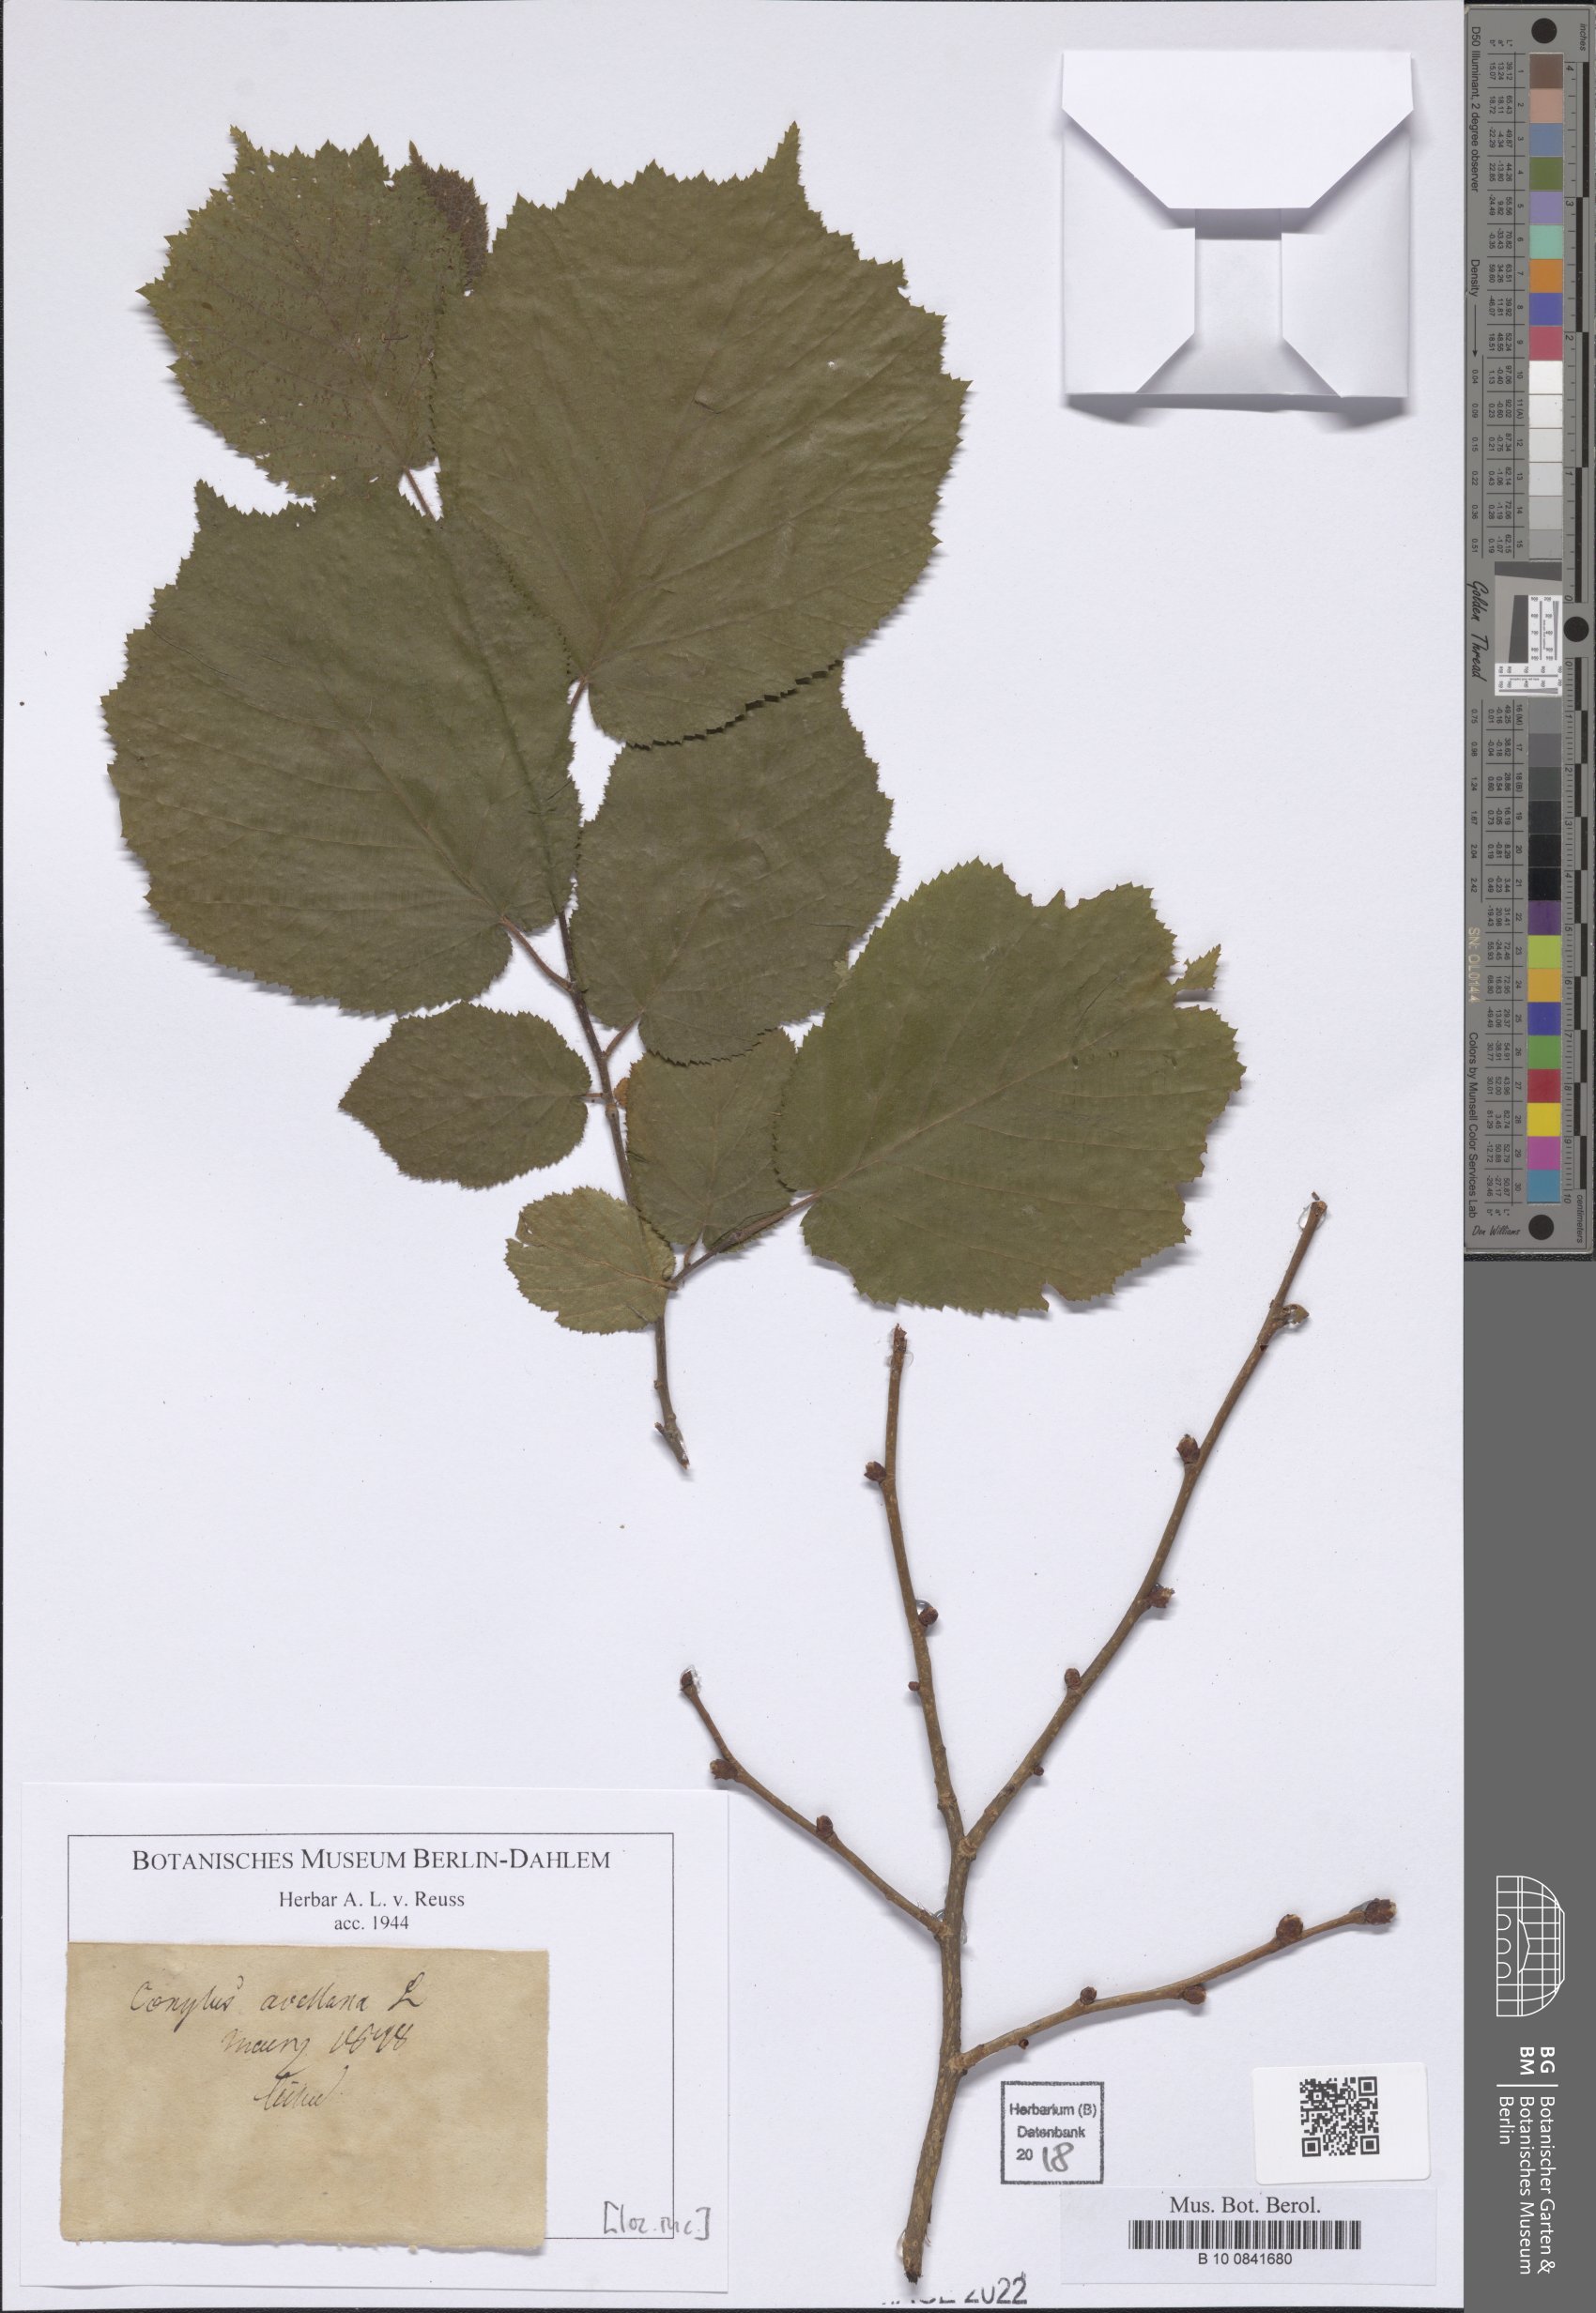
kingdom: Plantae
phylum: Tracheophyta
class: Magnoliopsida
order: Fagales
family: Betulaceae
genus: Corylus
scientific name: Corylus avellana
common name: European hazel
